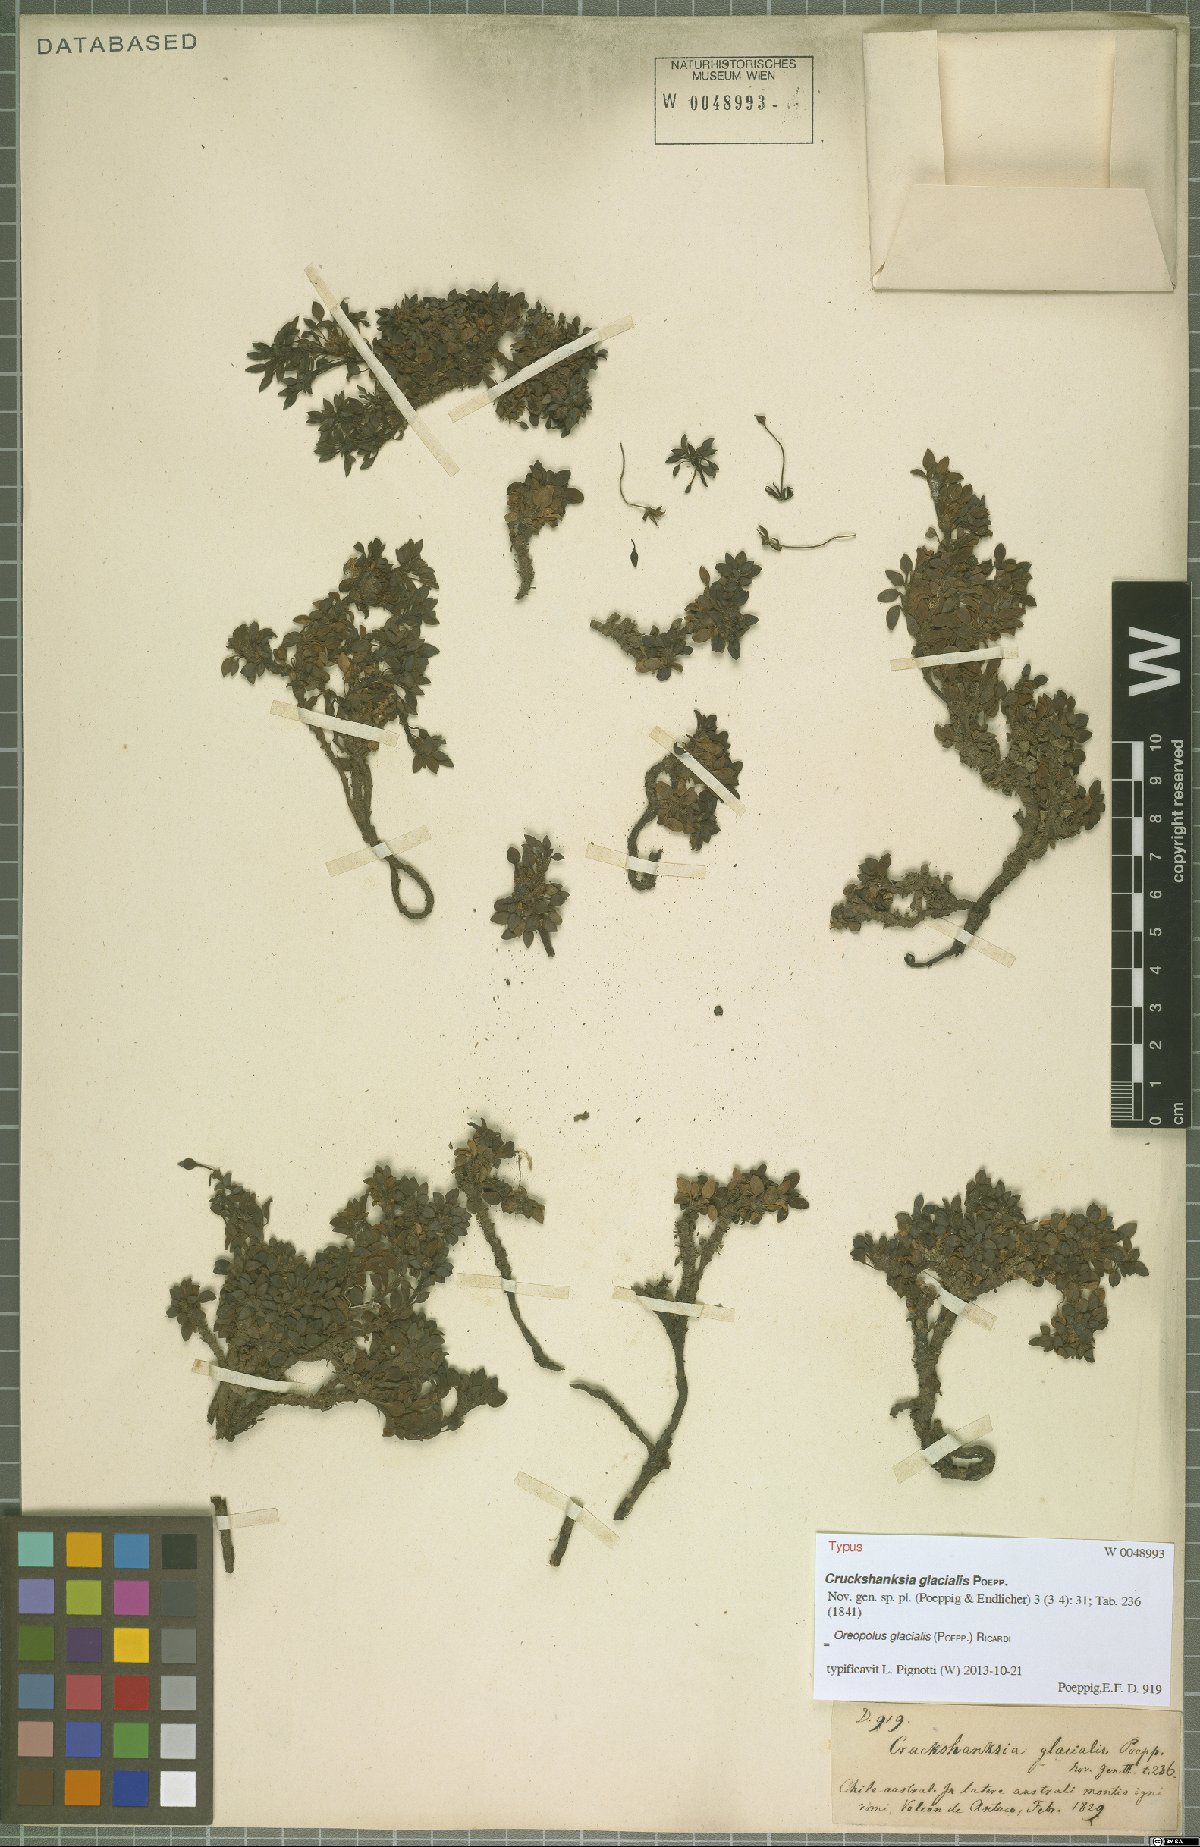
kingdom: Plantae
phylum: Tracheophyta
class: Magnoliopsida
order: Gentianales
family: Rubiaceae
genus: Oreopolus
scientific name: Oreopolus glacialis
